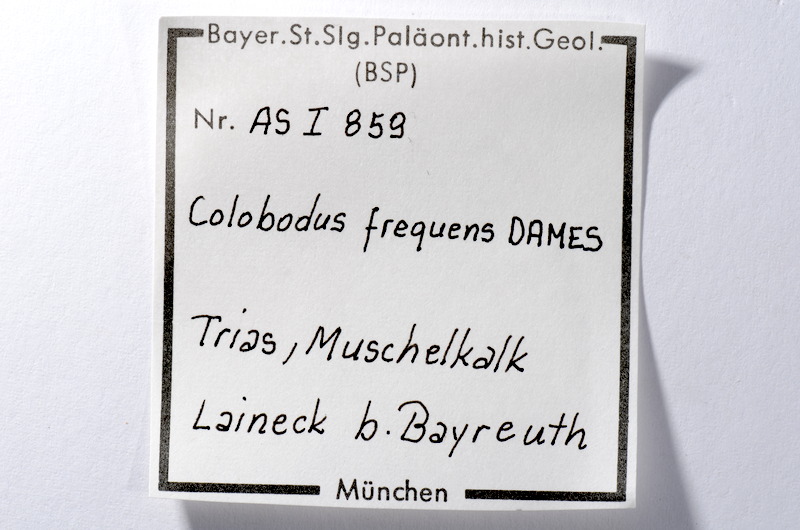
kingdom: Animalia
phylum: Chordata
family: Colobodontidae
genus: Colobodus
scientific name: Colobodus frequens
